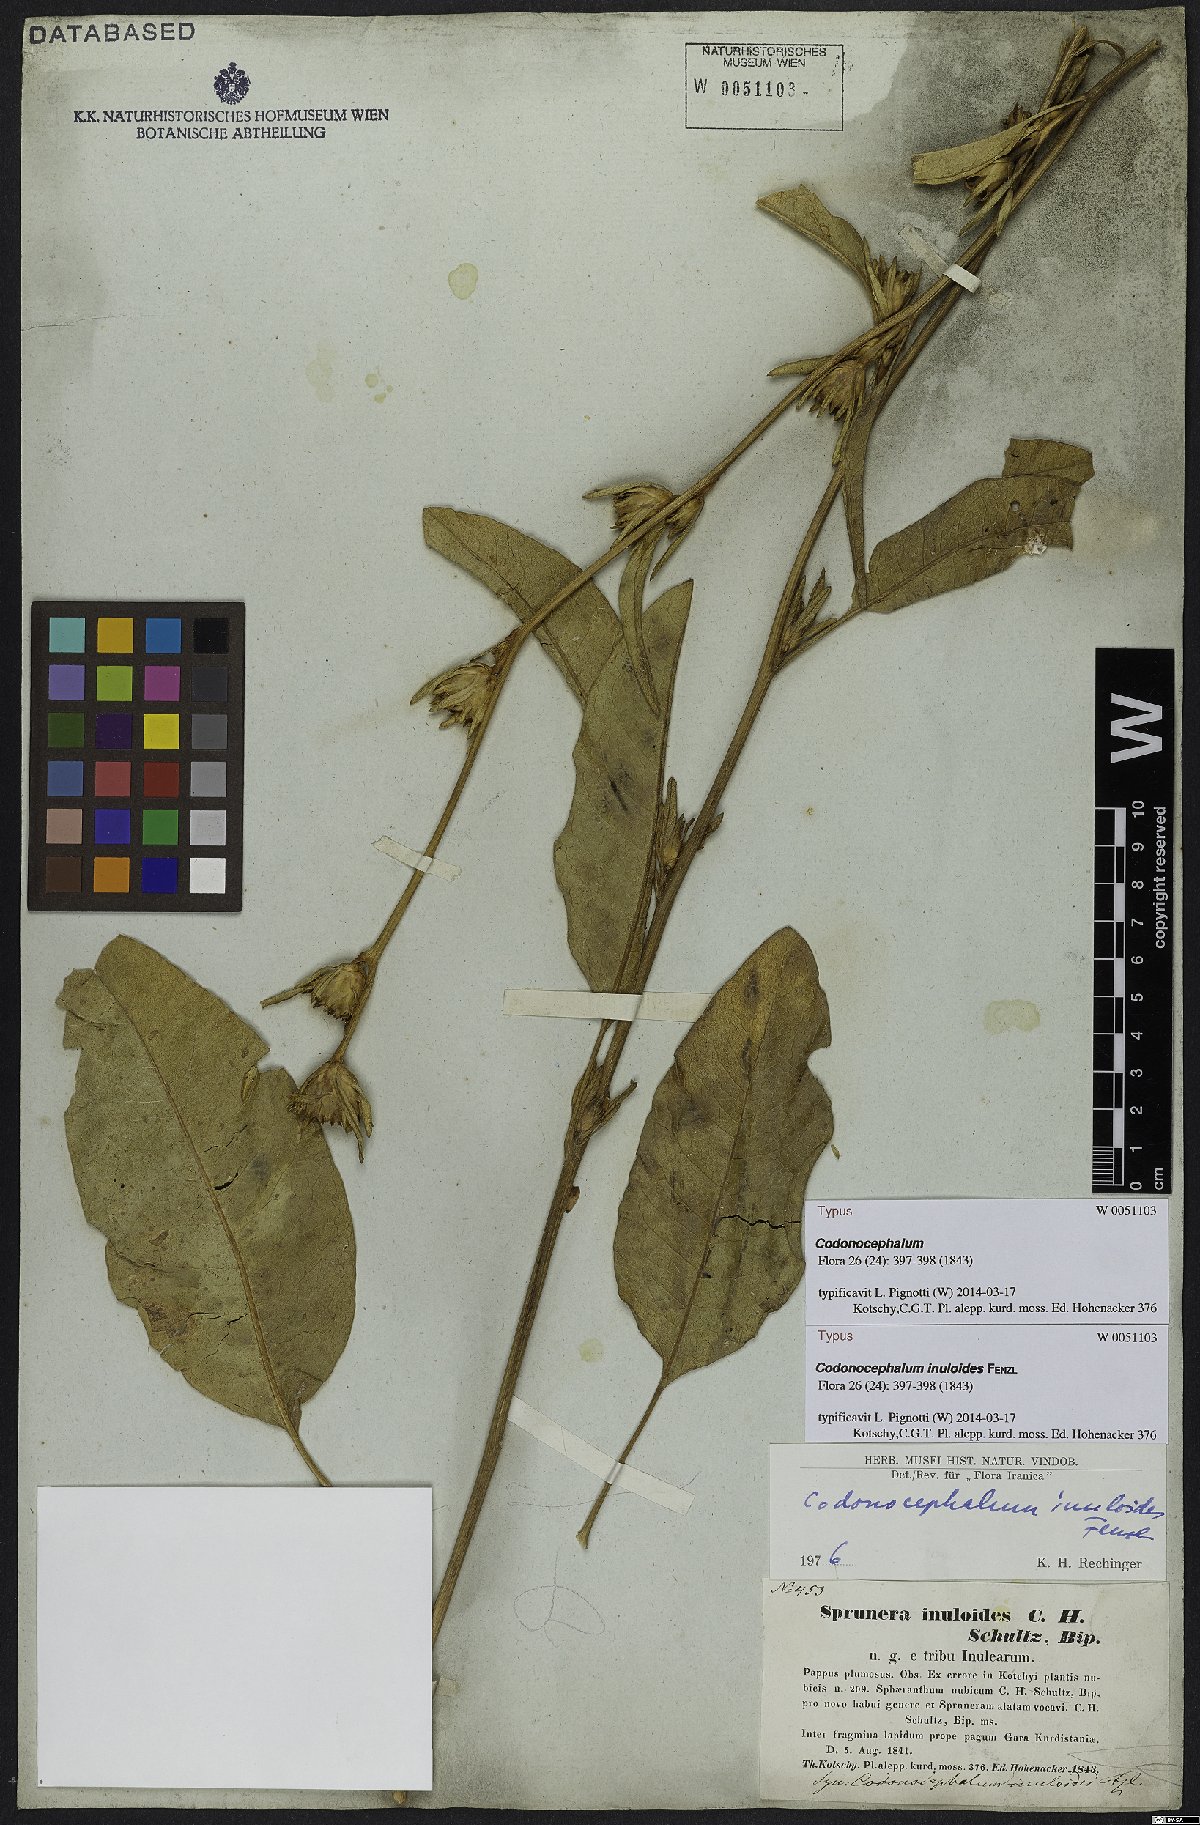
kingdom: Plantae
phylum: Tracheophyta
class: Magnoliopsida
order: Asterales
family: Asteraceae
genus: Inula
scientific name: Inula inuloides
